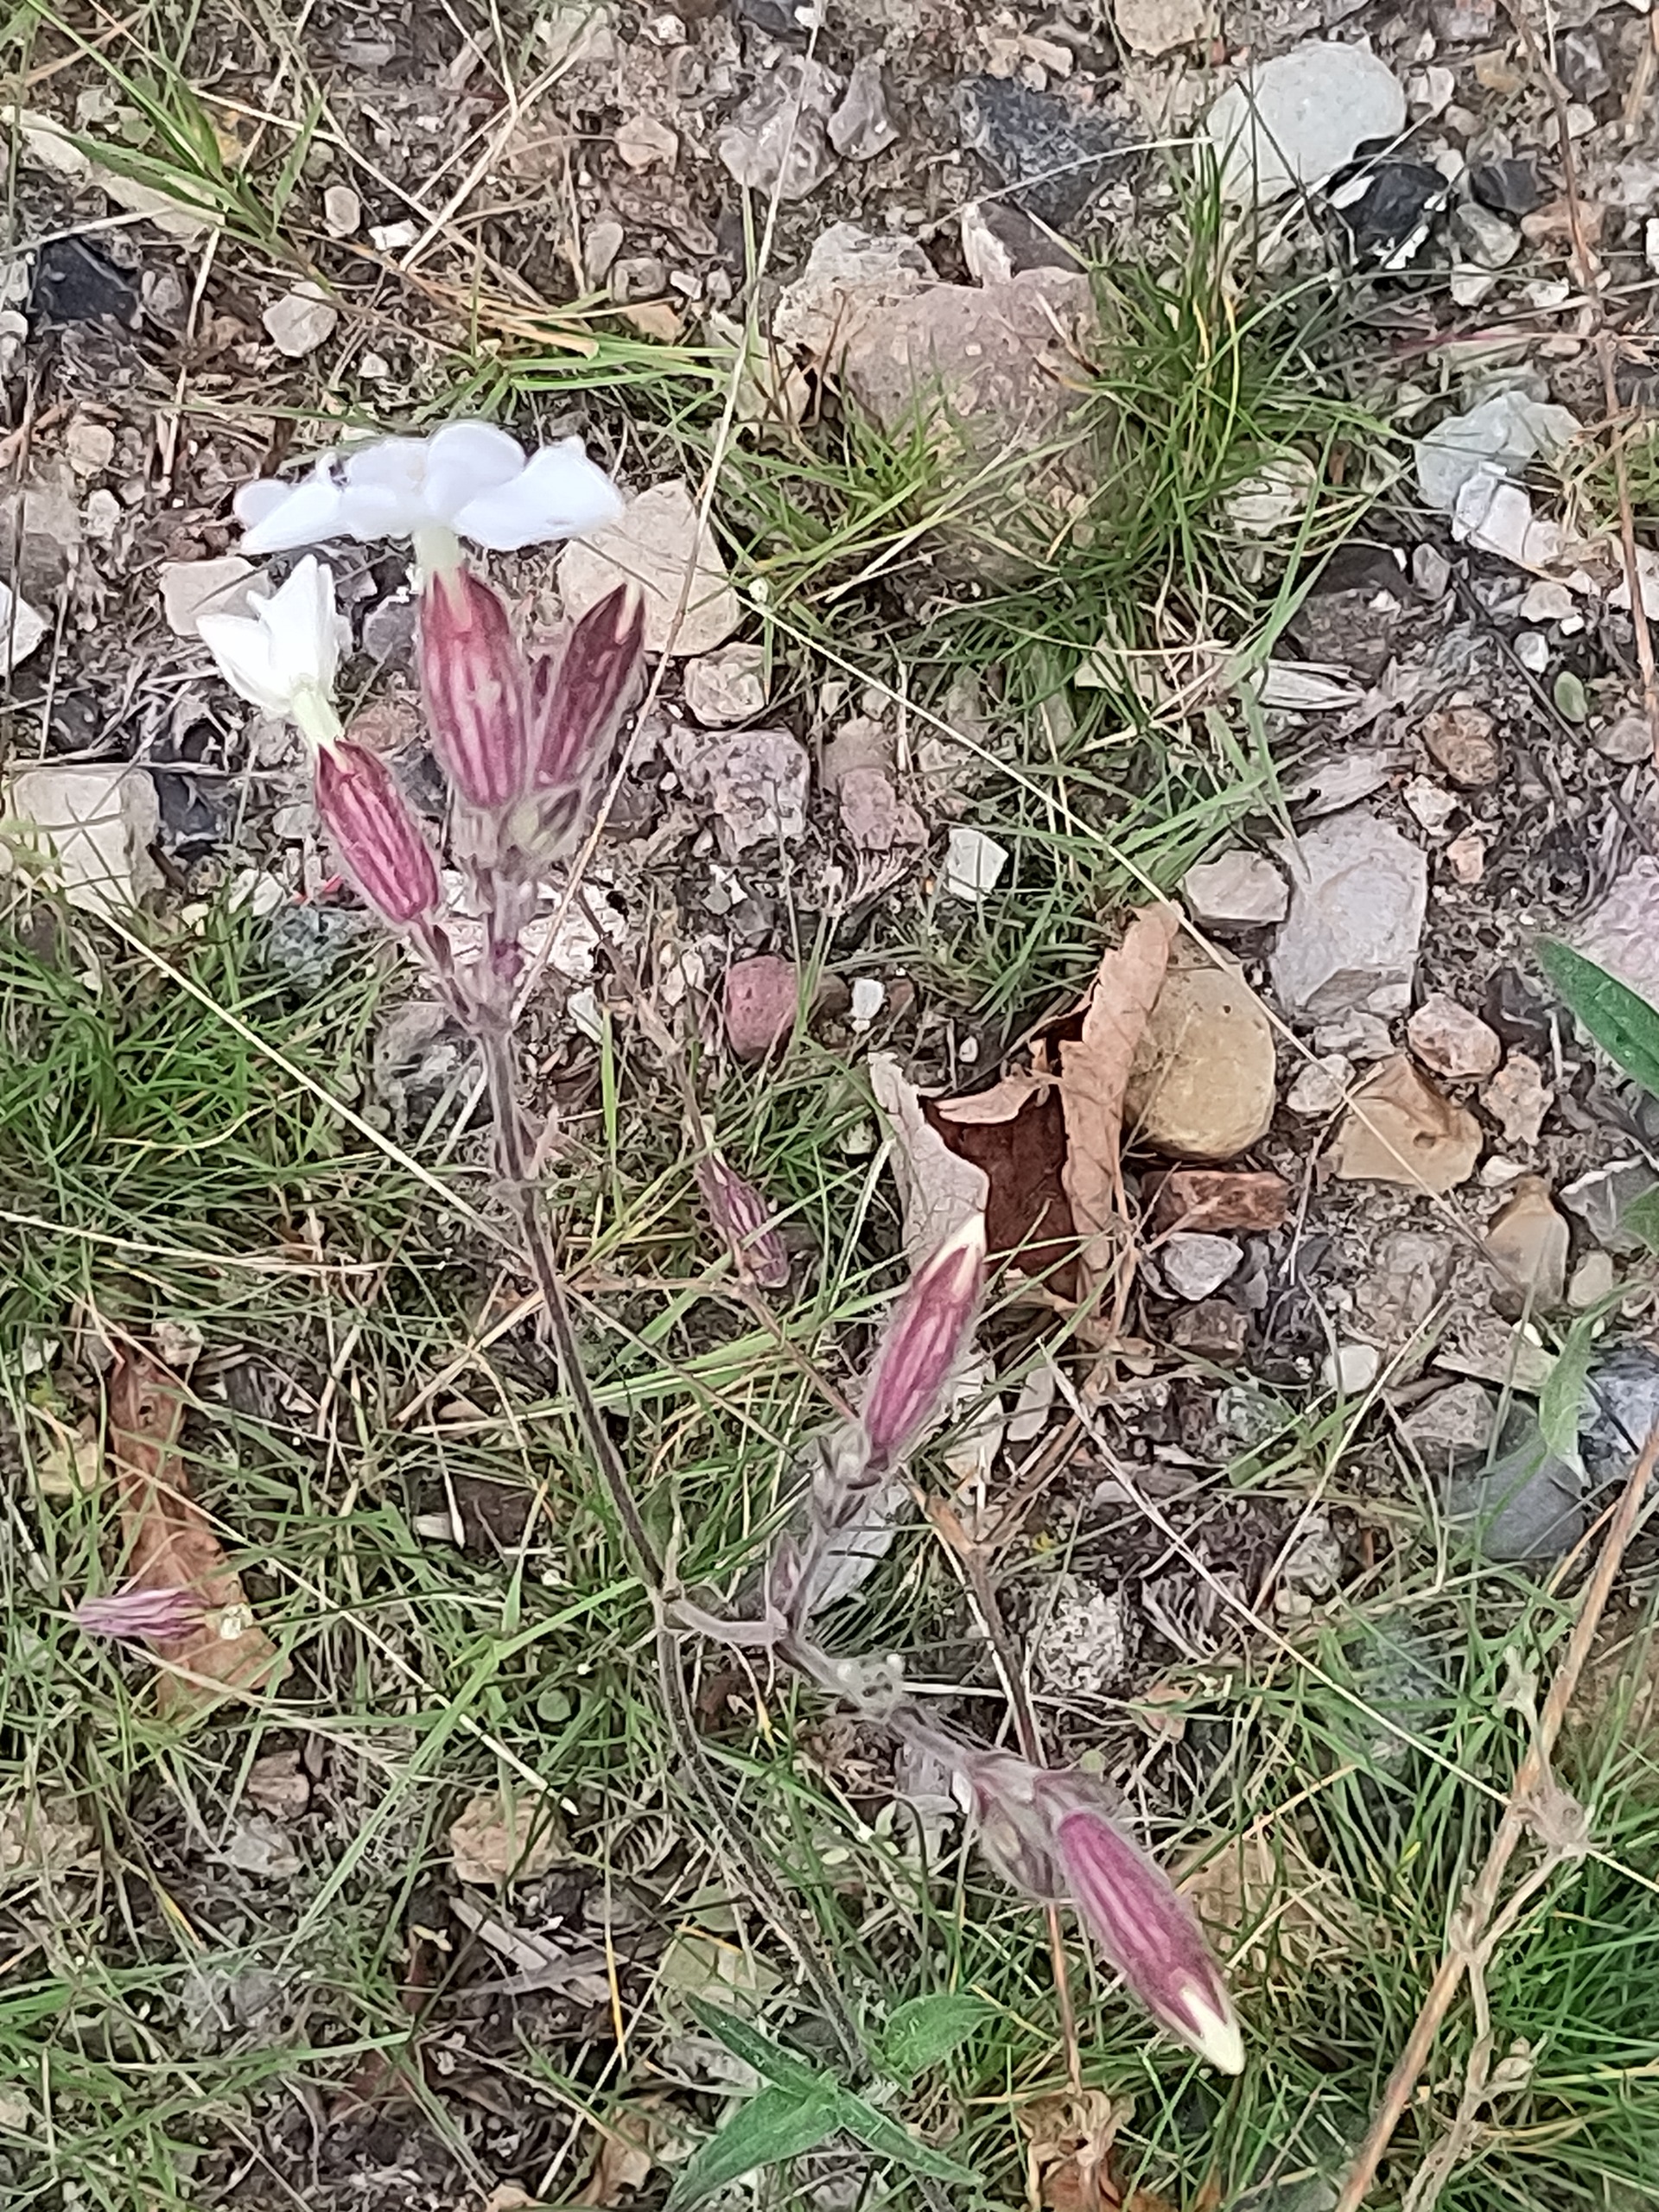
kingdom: Plantae
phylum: Tracheophyta
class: Magnoliopsida
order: Caryophyllales
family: Caryophyllaceae
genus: Silene
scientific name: Silene latifolia
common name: Aftenpragtstjerne
